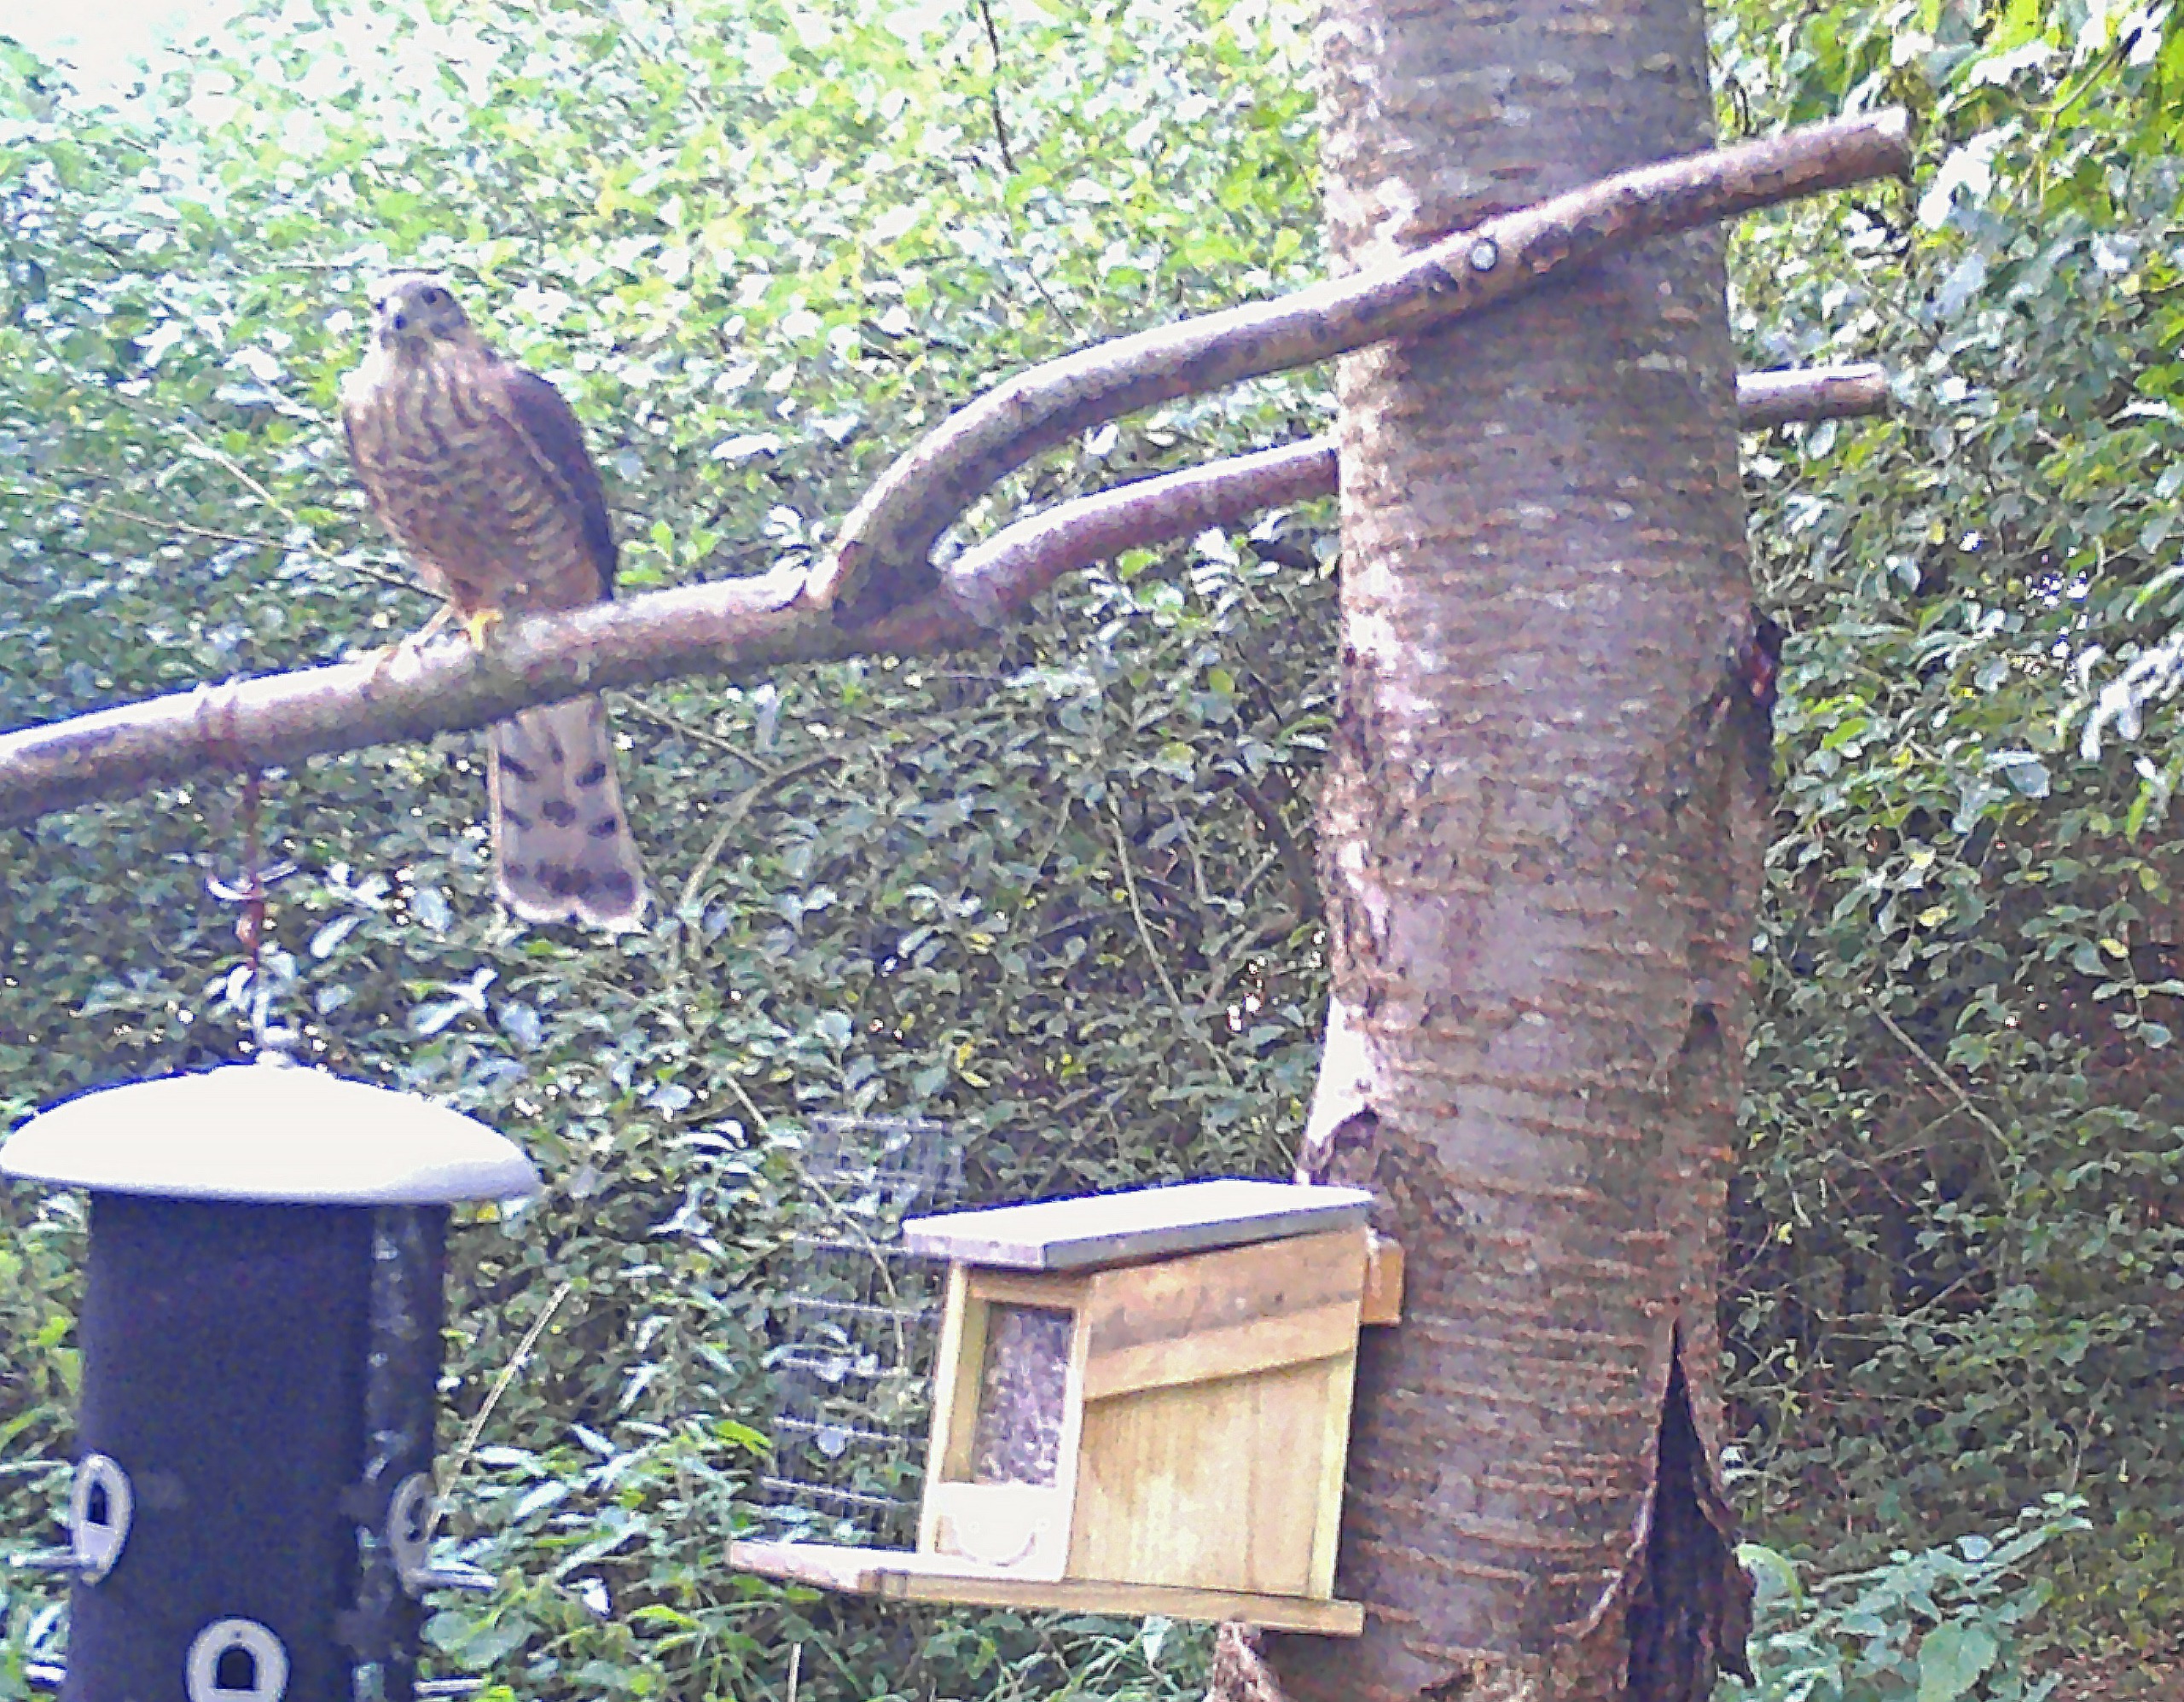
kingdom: Animalia
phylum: Chordata
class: Aves
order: Accipitriformes
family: Accipitridae
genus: Accipiter
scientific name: Accipiter nisus
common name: Spurvehøg
